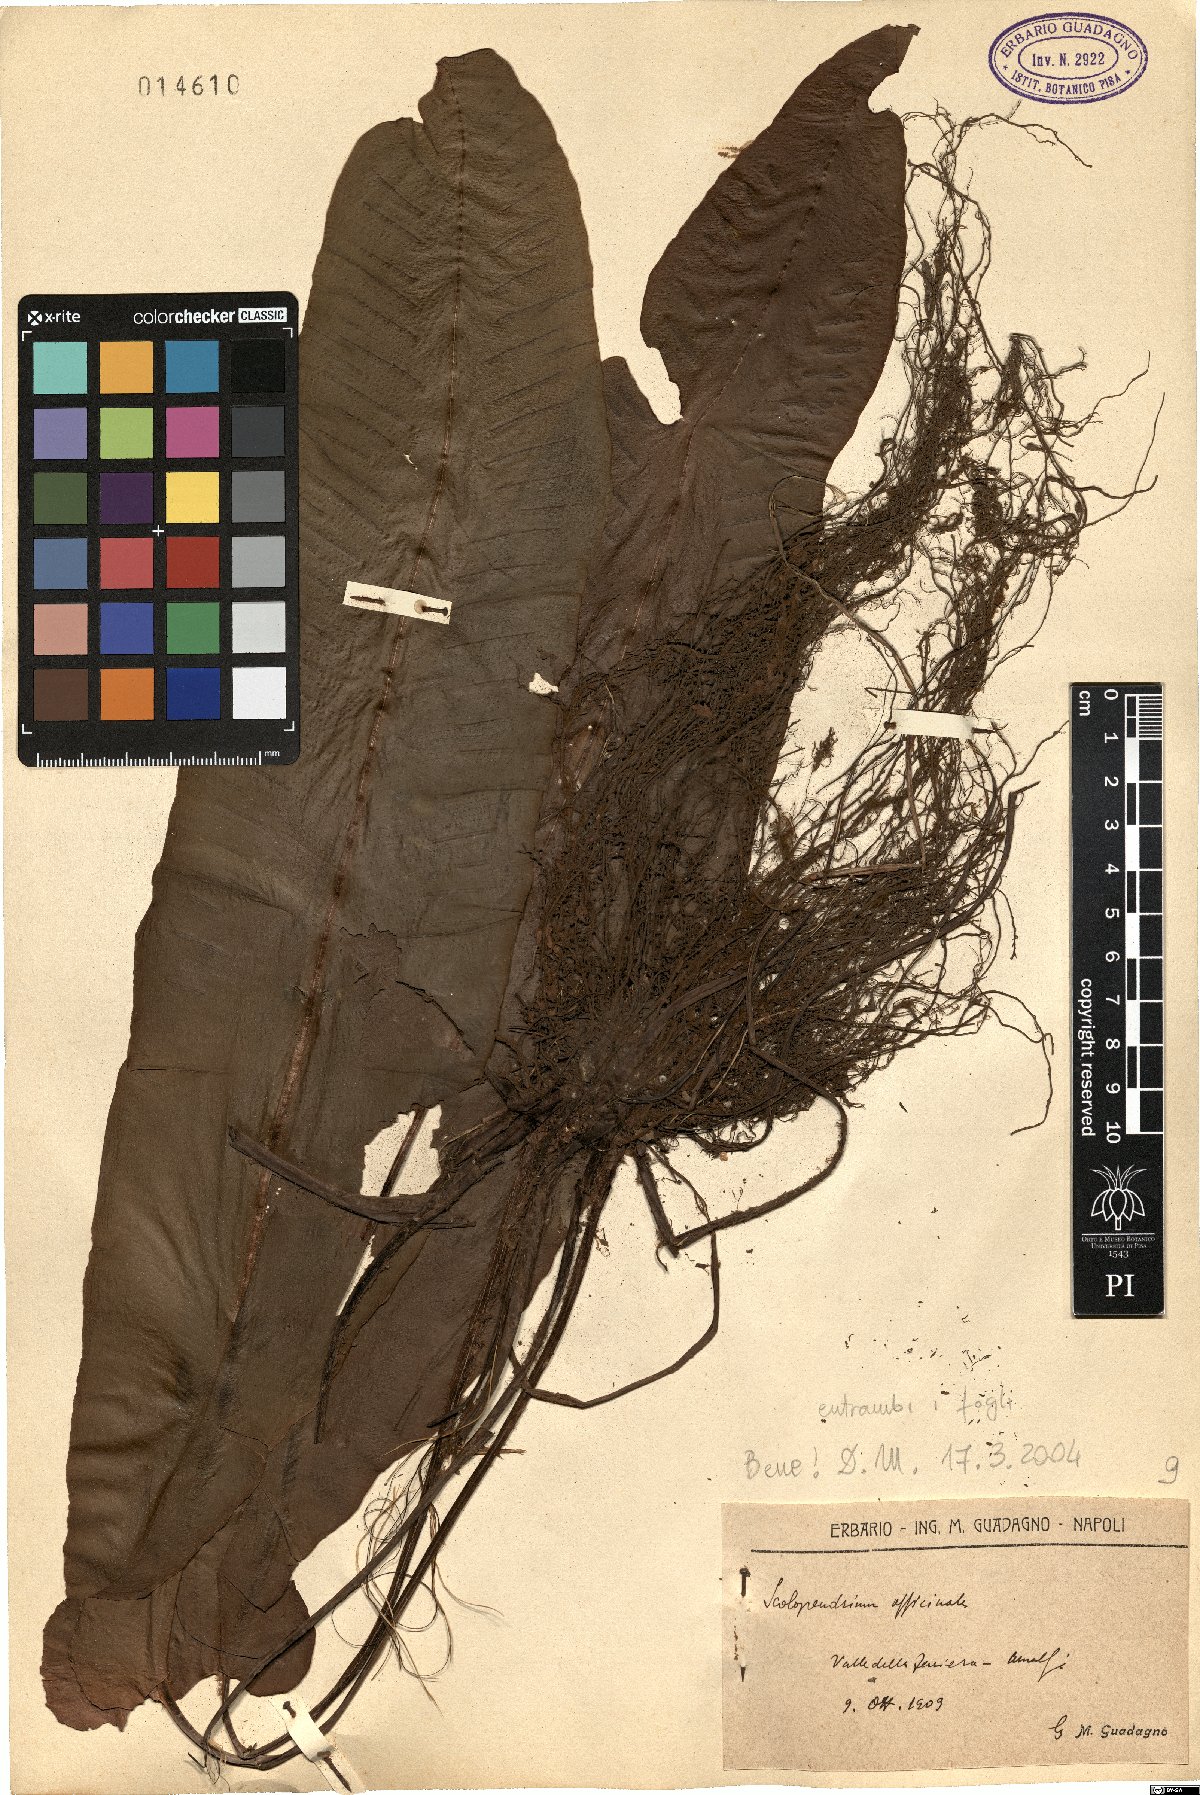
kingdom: Plantae
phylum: Tracheophyta
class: Polypodiopsida
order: Polypodiales
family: Aspleniaceae
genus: Asplenium
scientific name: Asplenium scolopendrium
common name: Hart's-tongue fern
